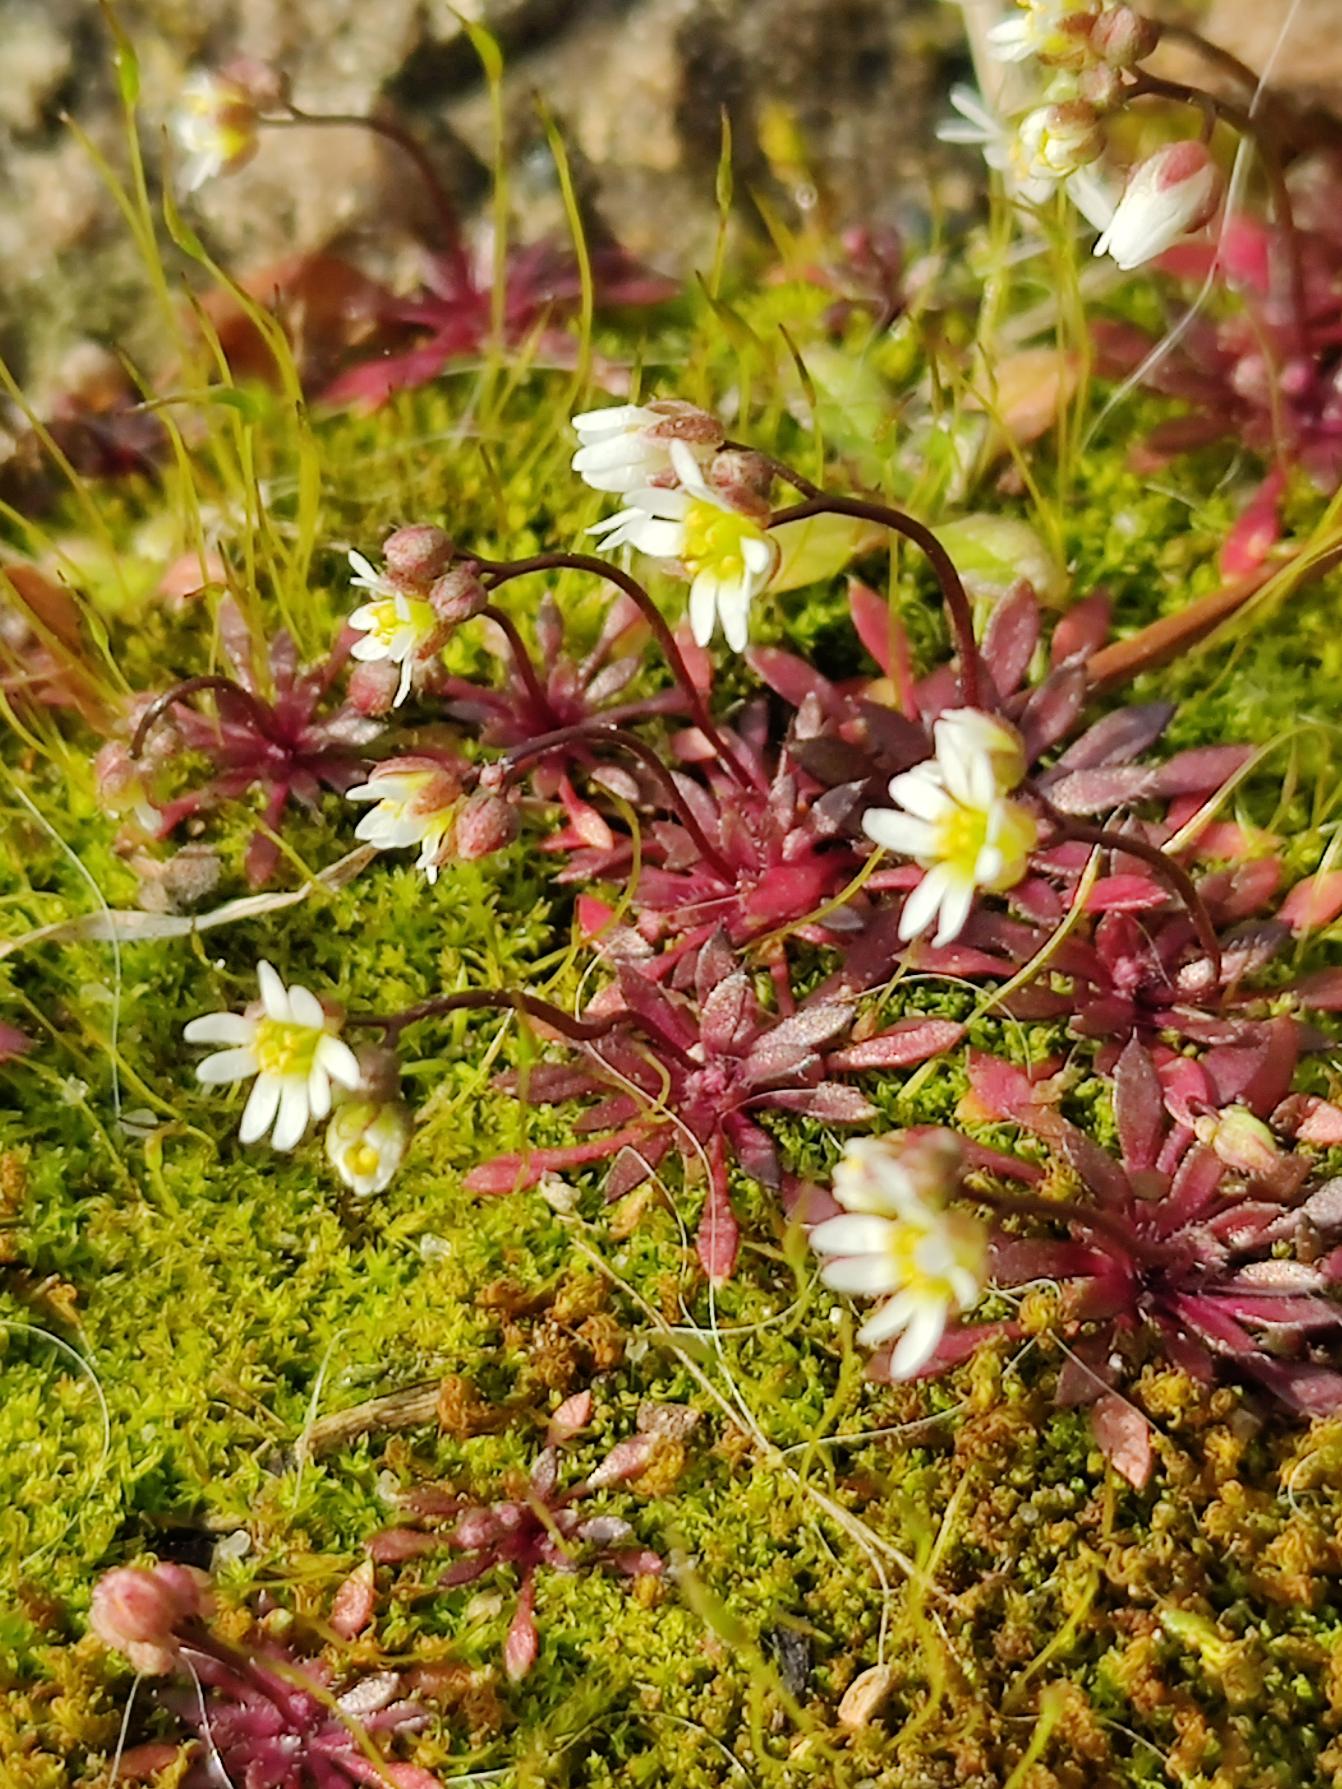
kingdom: Plantae
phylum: Tracheophyta
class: Magnoliopsida
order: Brassicales
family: Brassicaceae
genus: Draba
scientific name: Draba verna
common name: Vår-gæslingeblomst
